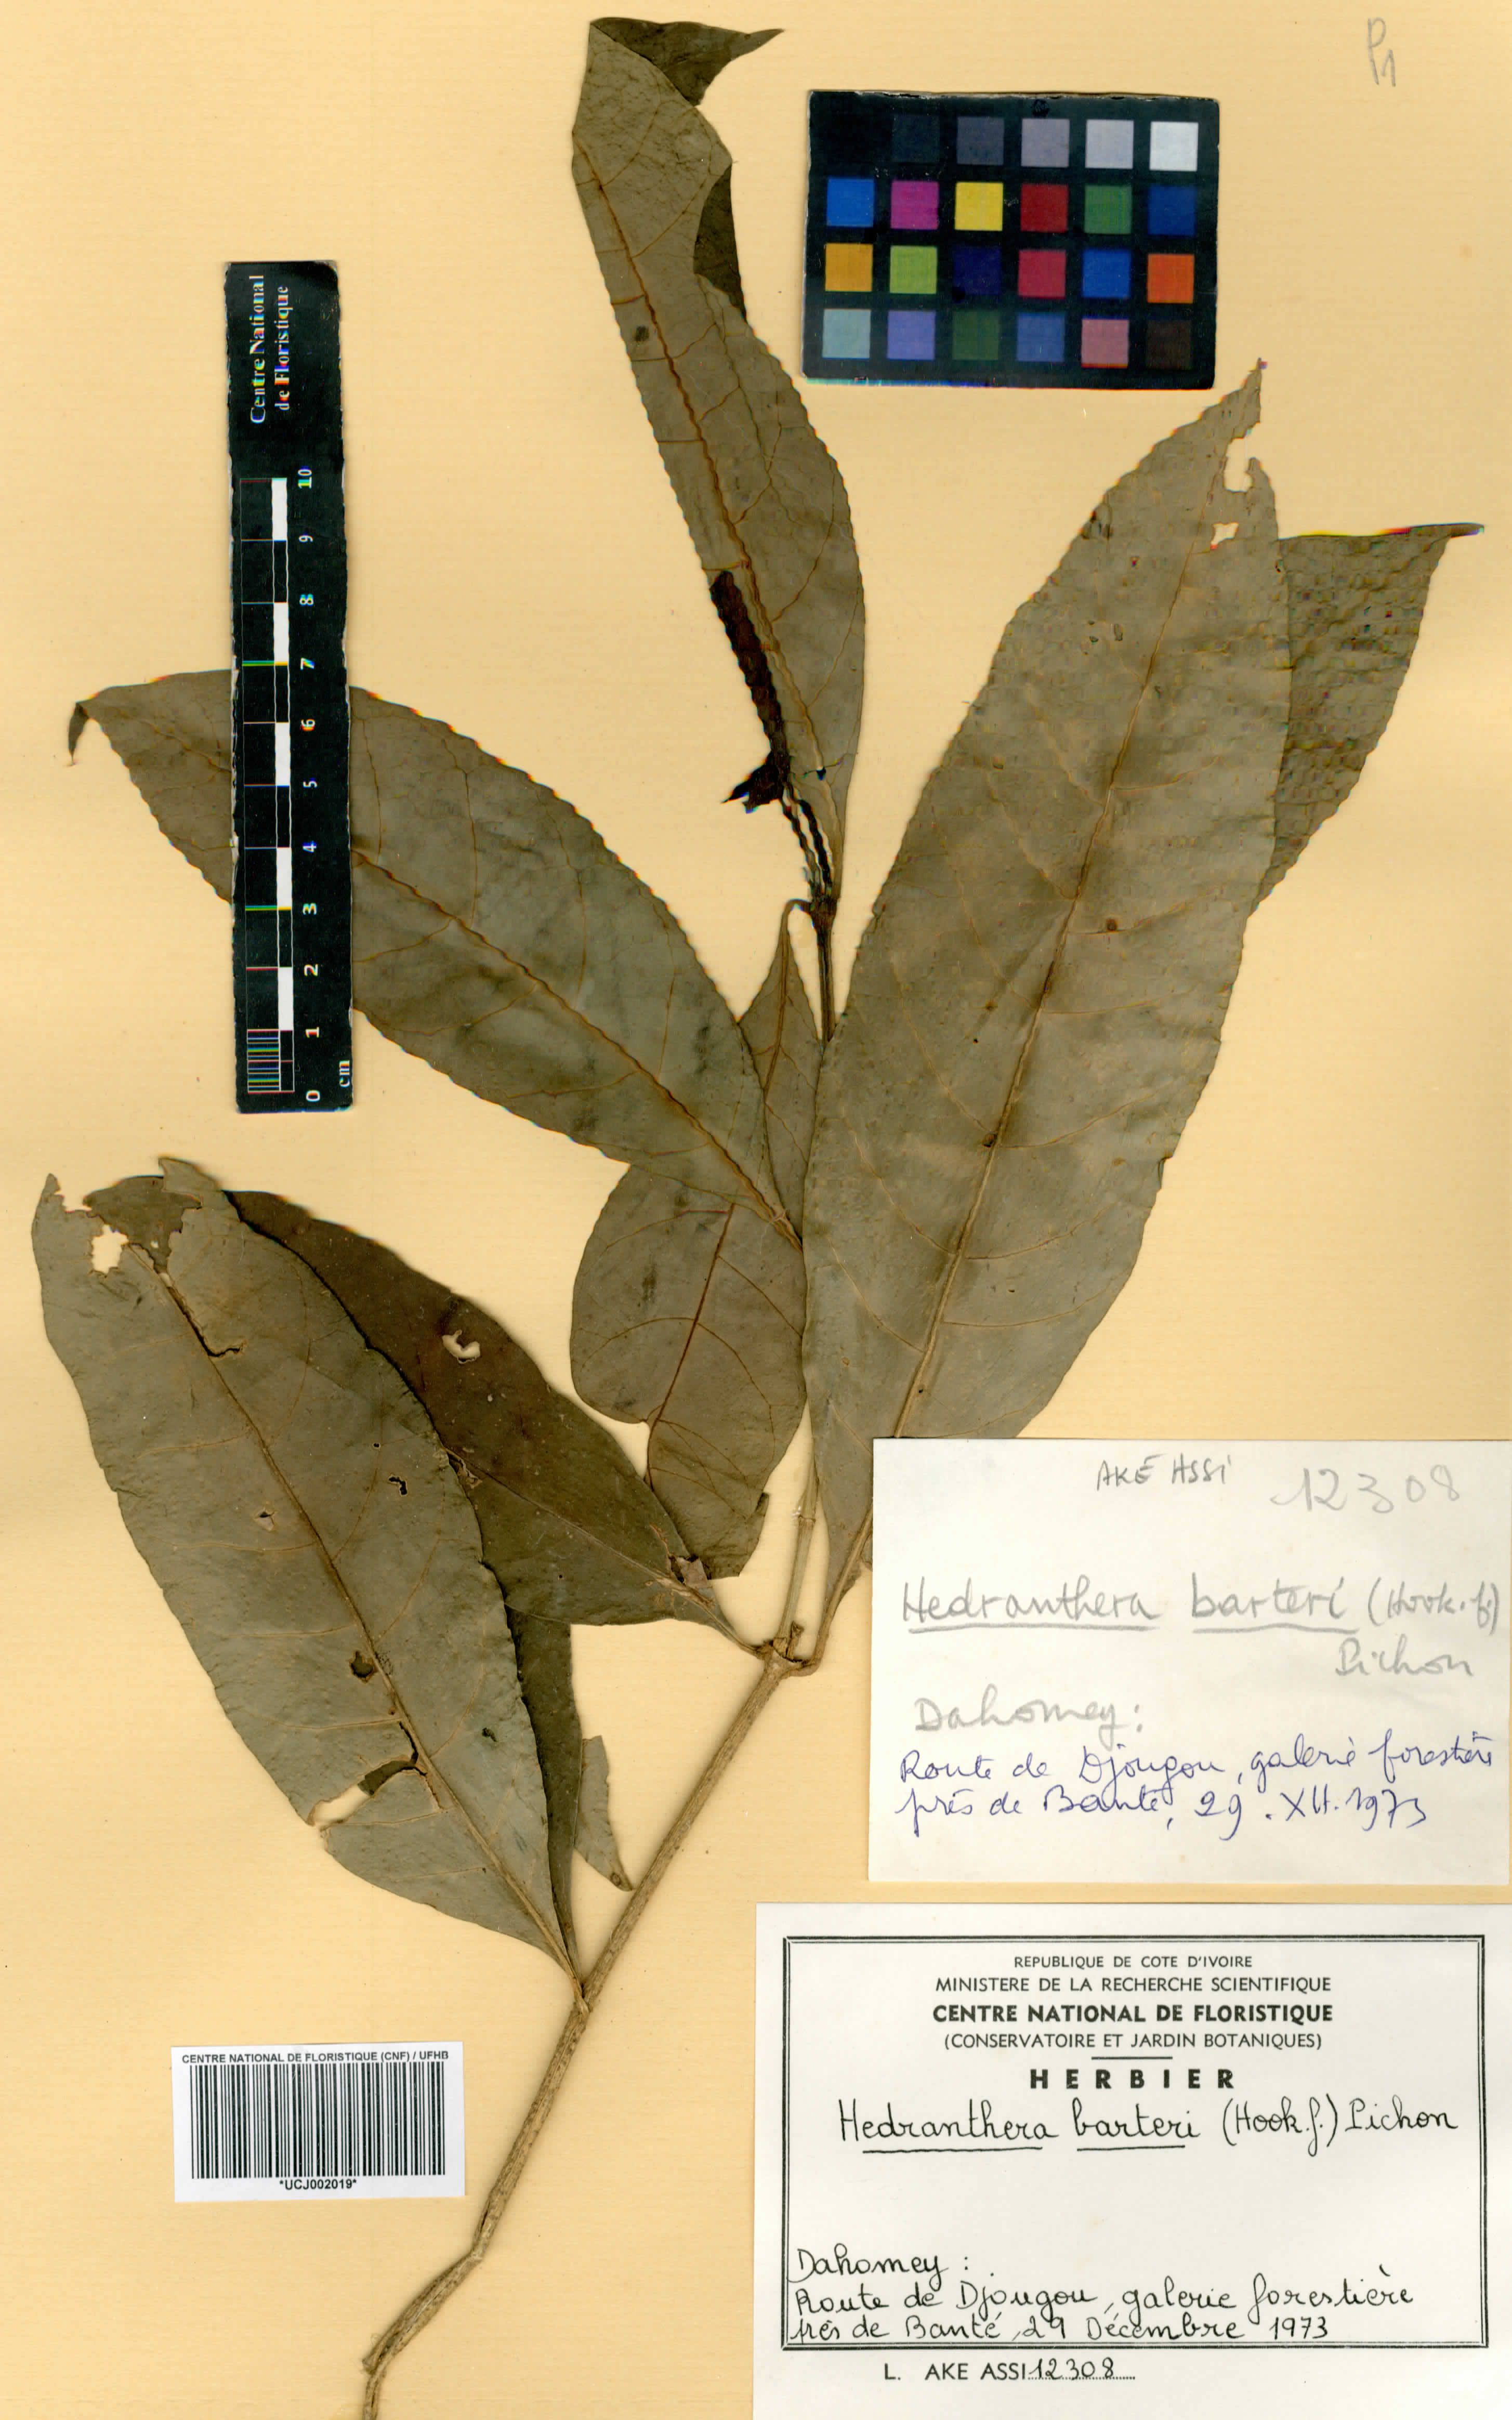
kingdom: Plantae
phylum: Tracheophyta
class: Magnoliopsida
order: Gentianales
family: Apocynaceae
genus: Callichilia
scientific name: Callichilia barteri
